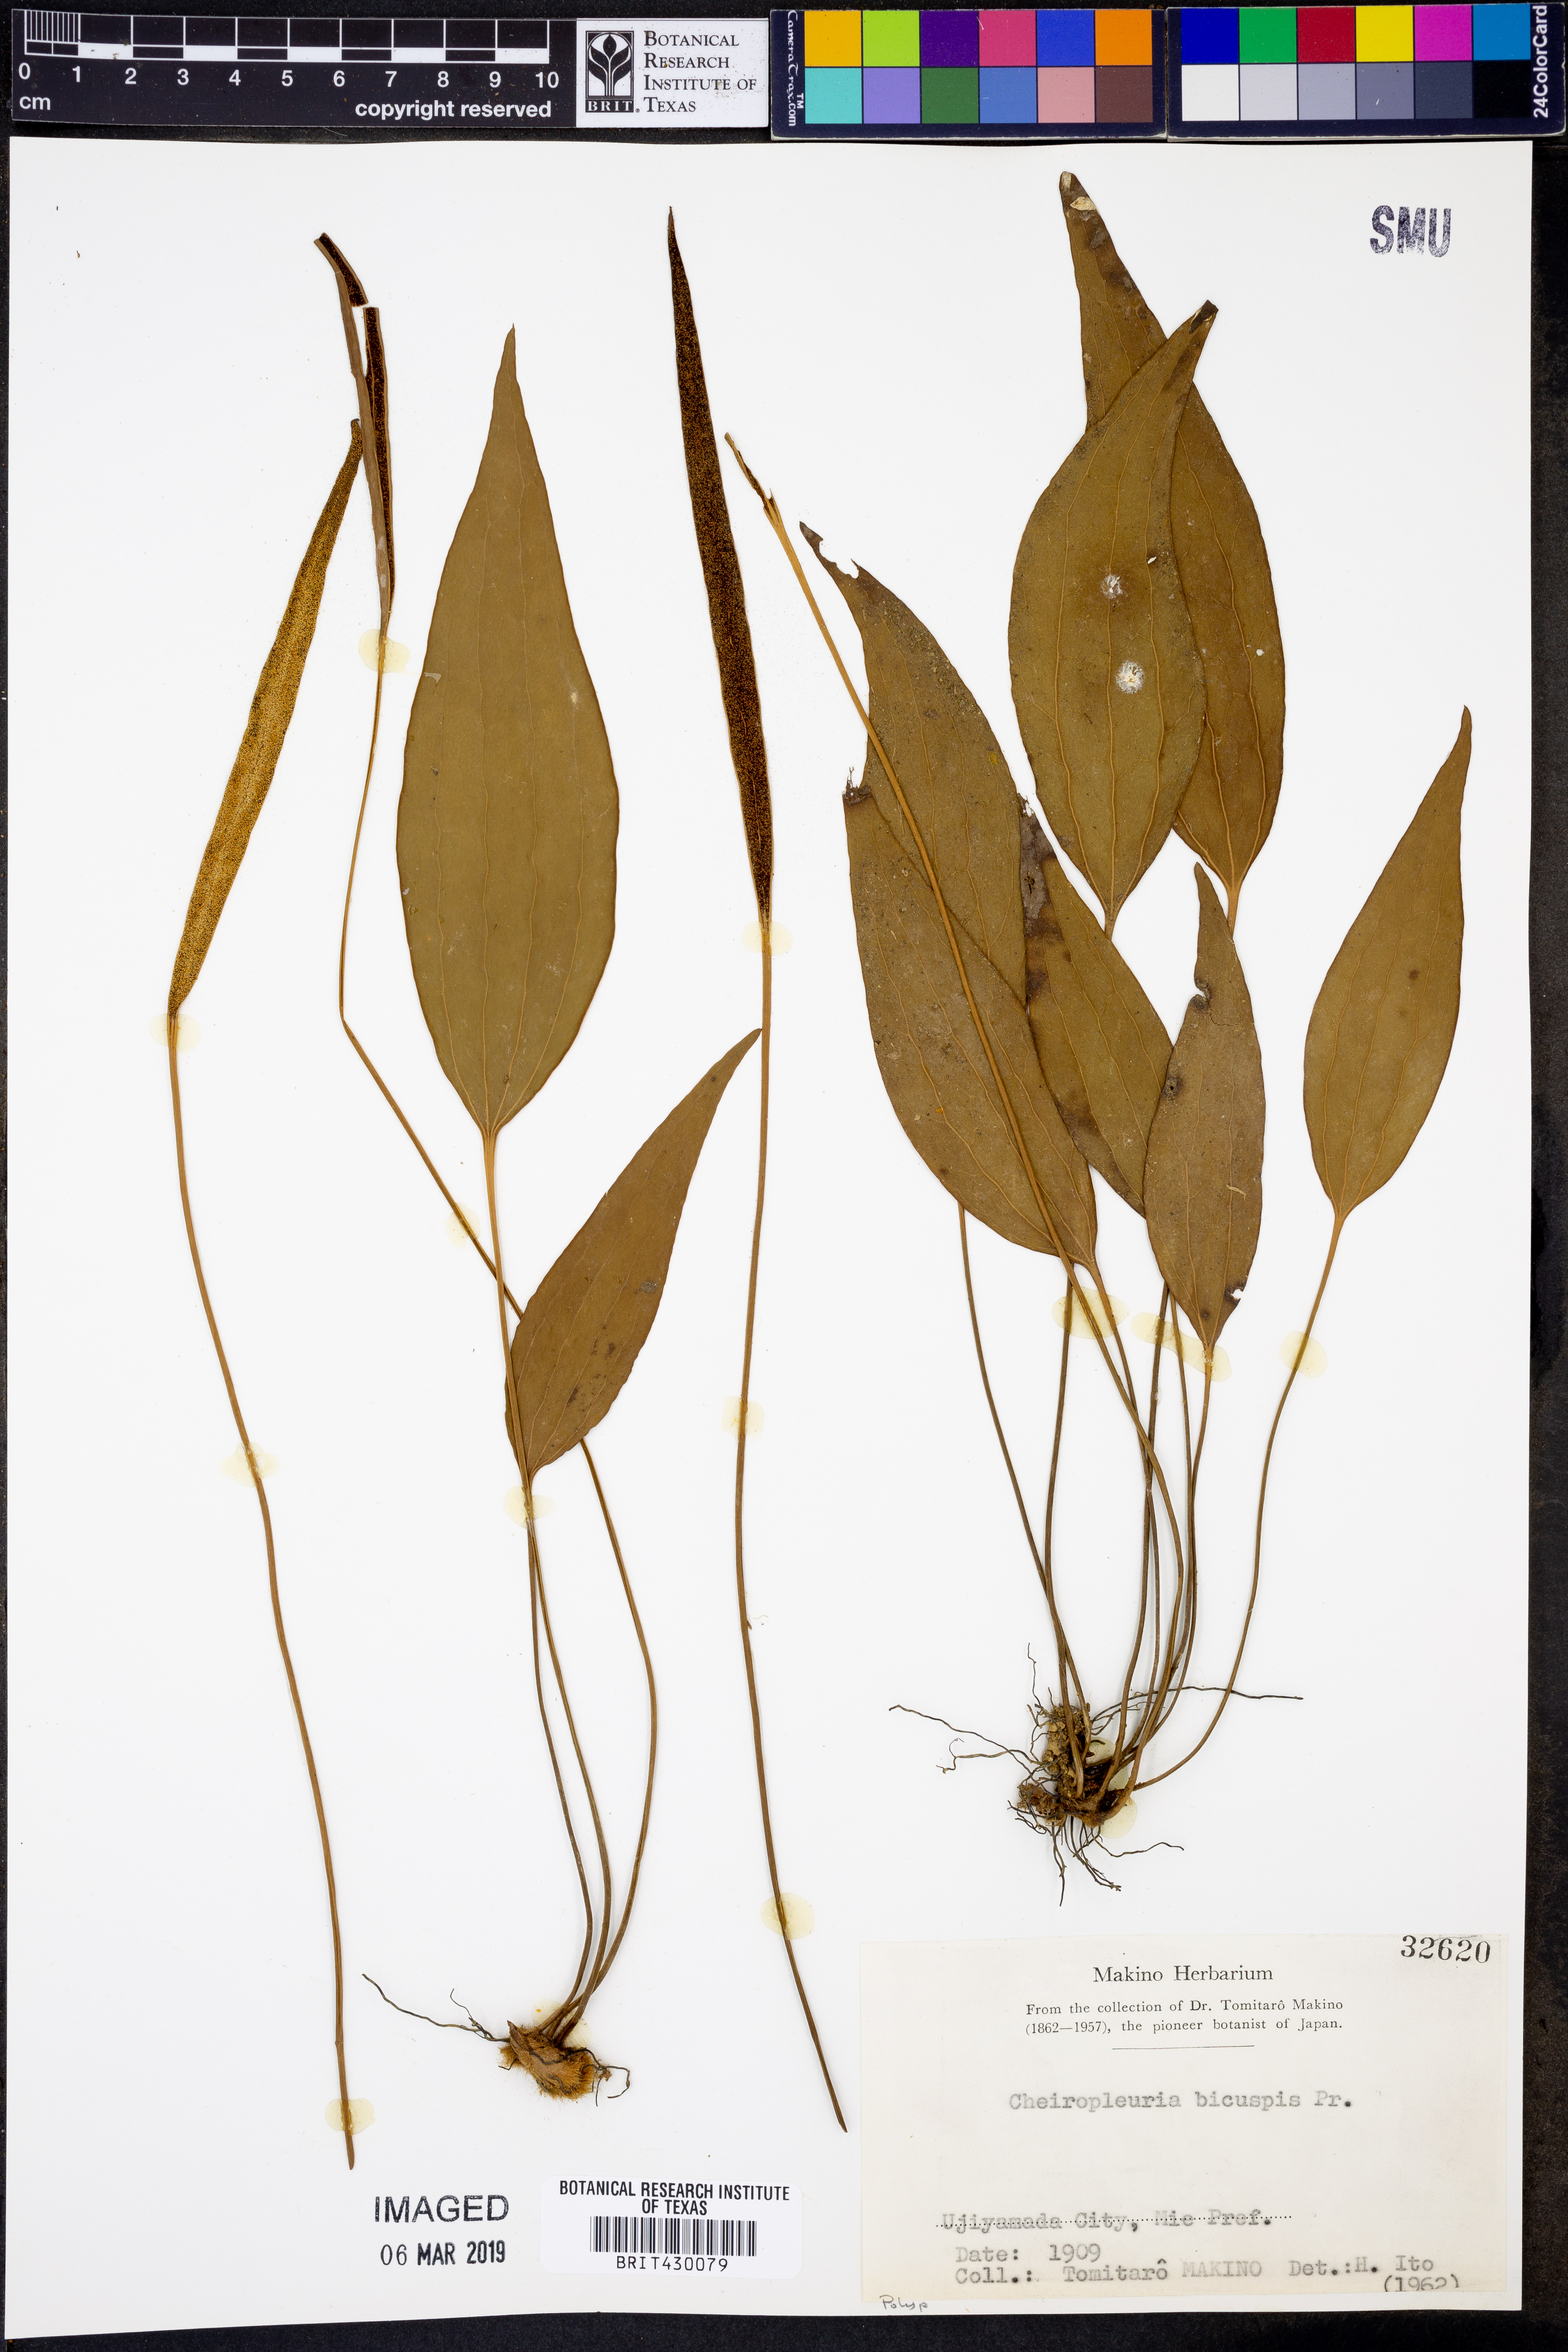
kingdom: Plantae
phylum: Tracheophyta
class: Polypodiopsida
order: Gleicheniales
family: Dipteridaceae
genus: Cheiropleuria
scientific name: Cheiropleuria bicuspis
